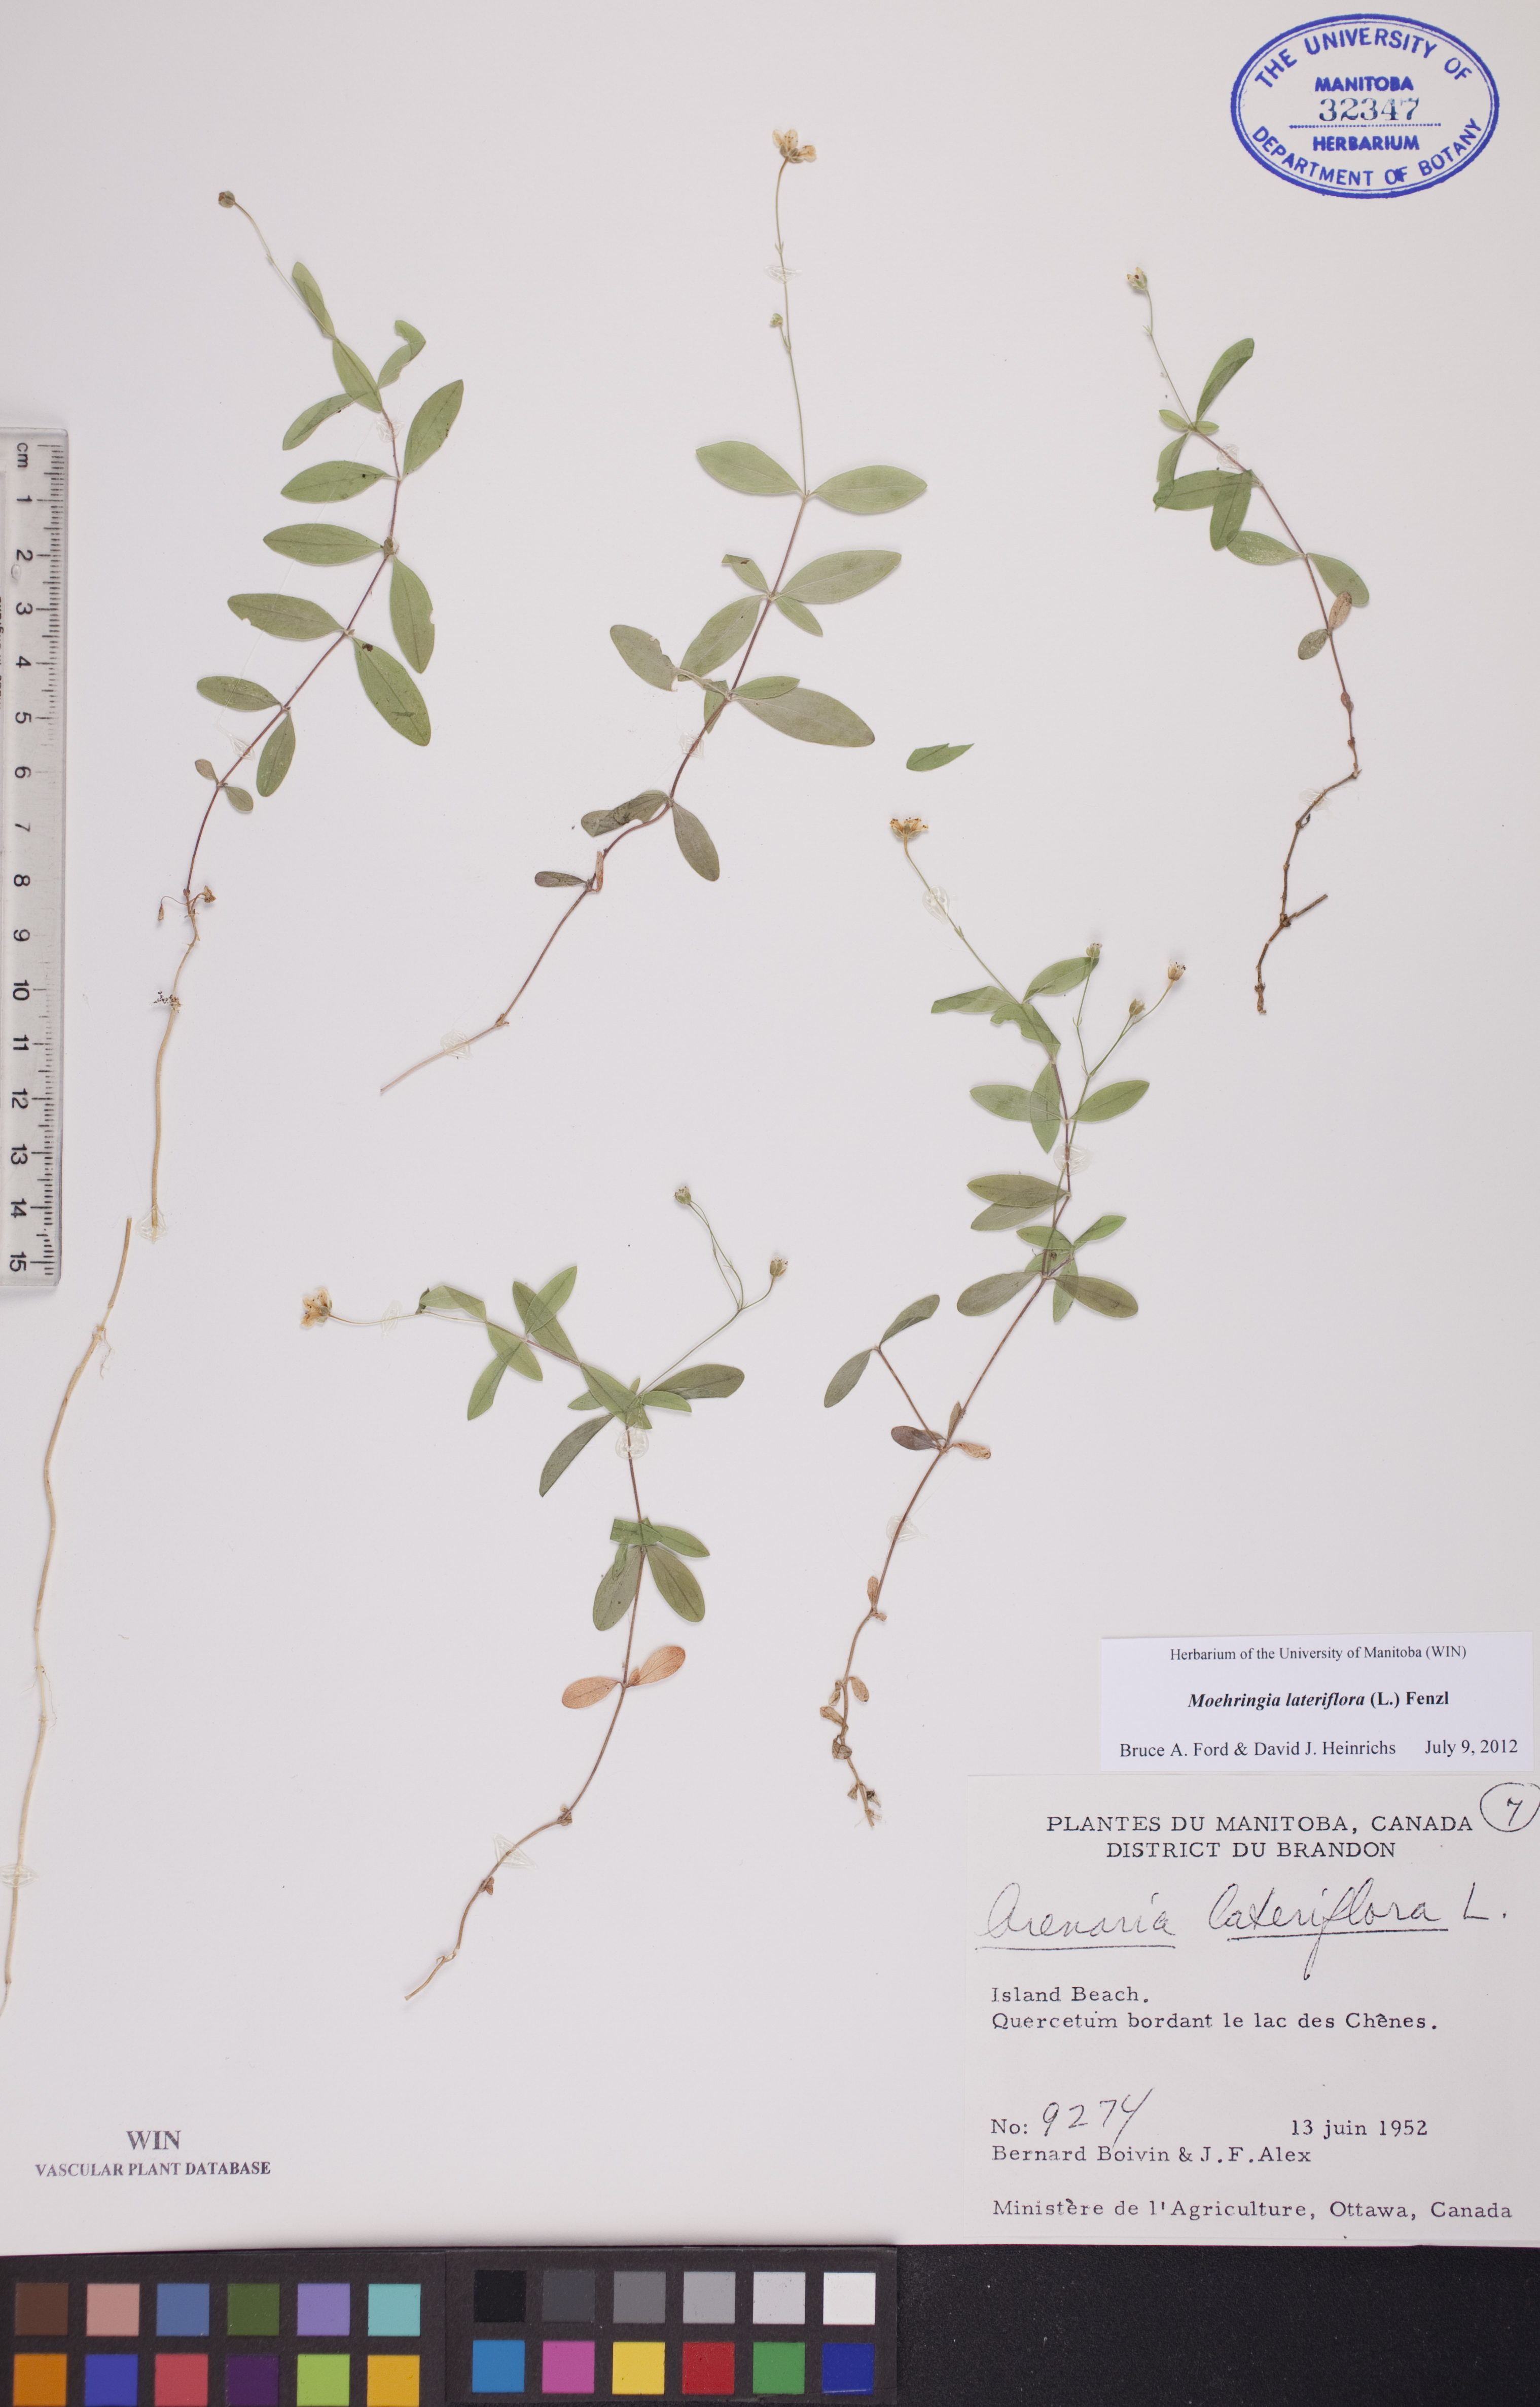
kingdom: Plantae
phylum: Tracheophyta
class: Magnoliopsida
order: Caryophyllales
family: Caryophyllaceae
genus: Moehringia
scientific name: Moehringia lateriflora
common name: Blunt-leaved sandwort
